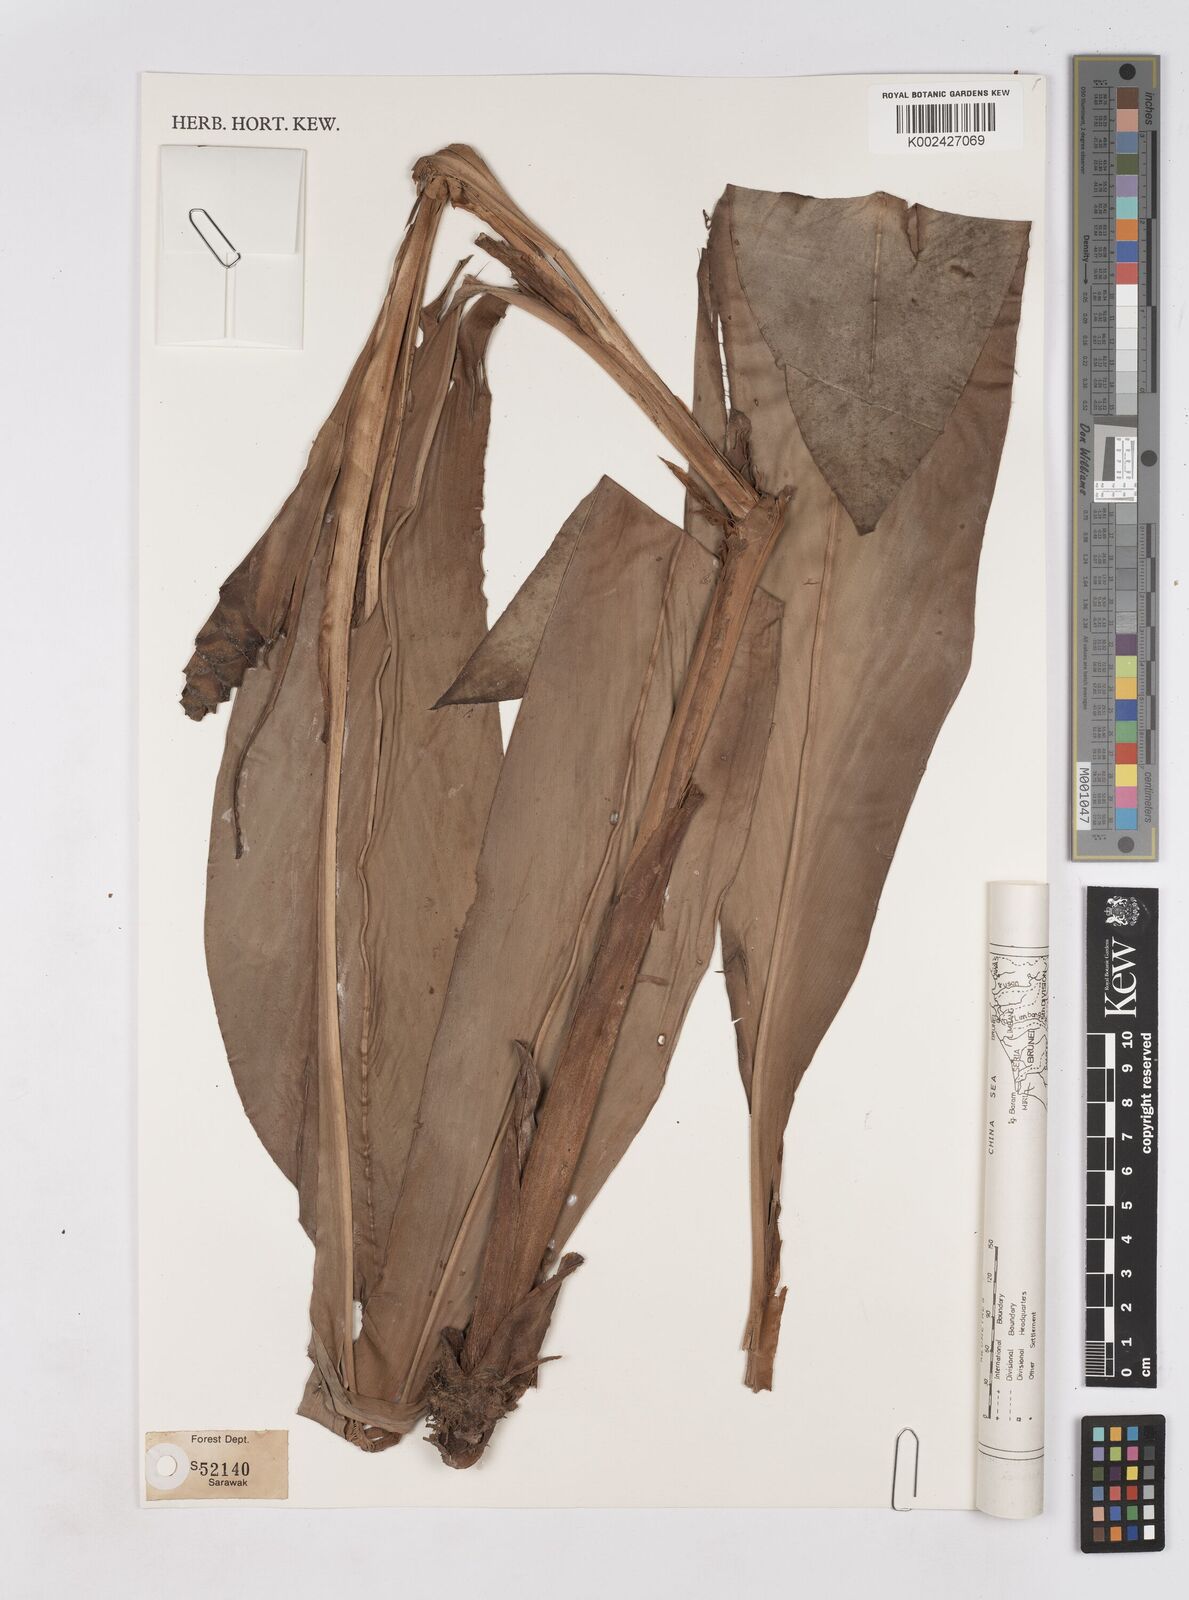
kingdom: Plantae
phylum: Tracheophyta
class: Liliopsida
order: Zingiberales
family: Zingiberaceae
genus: Hedychium
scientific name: Hedychium
